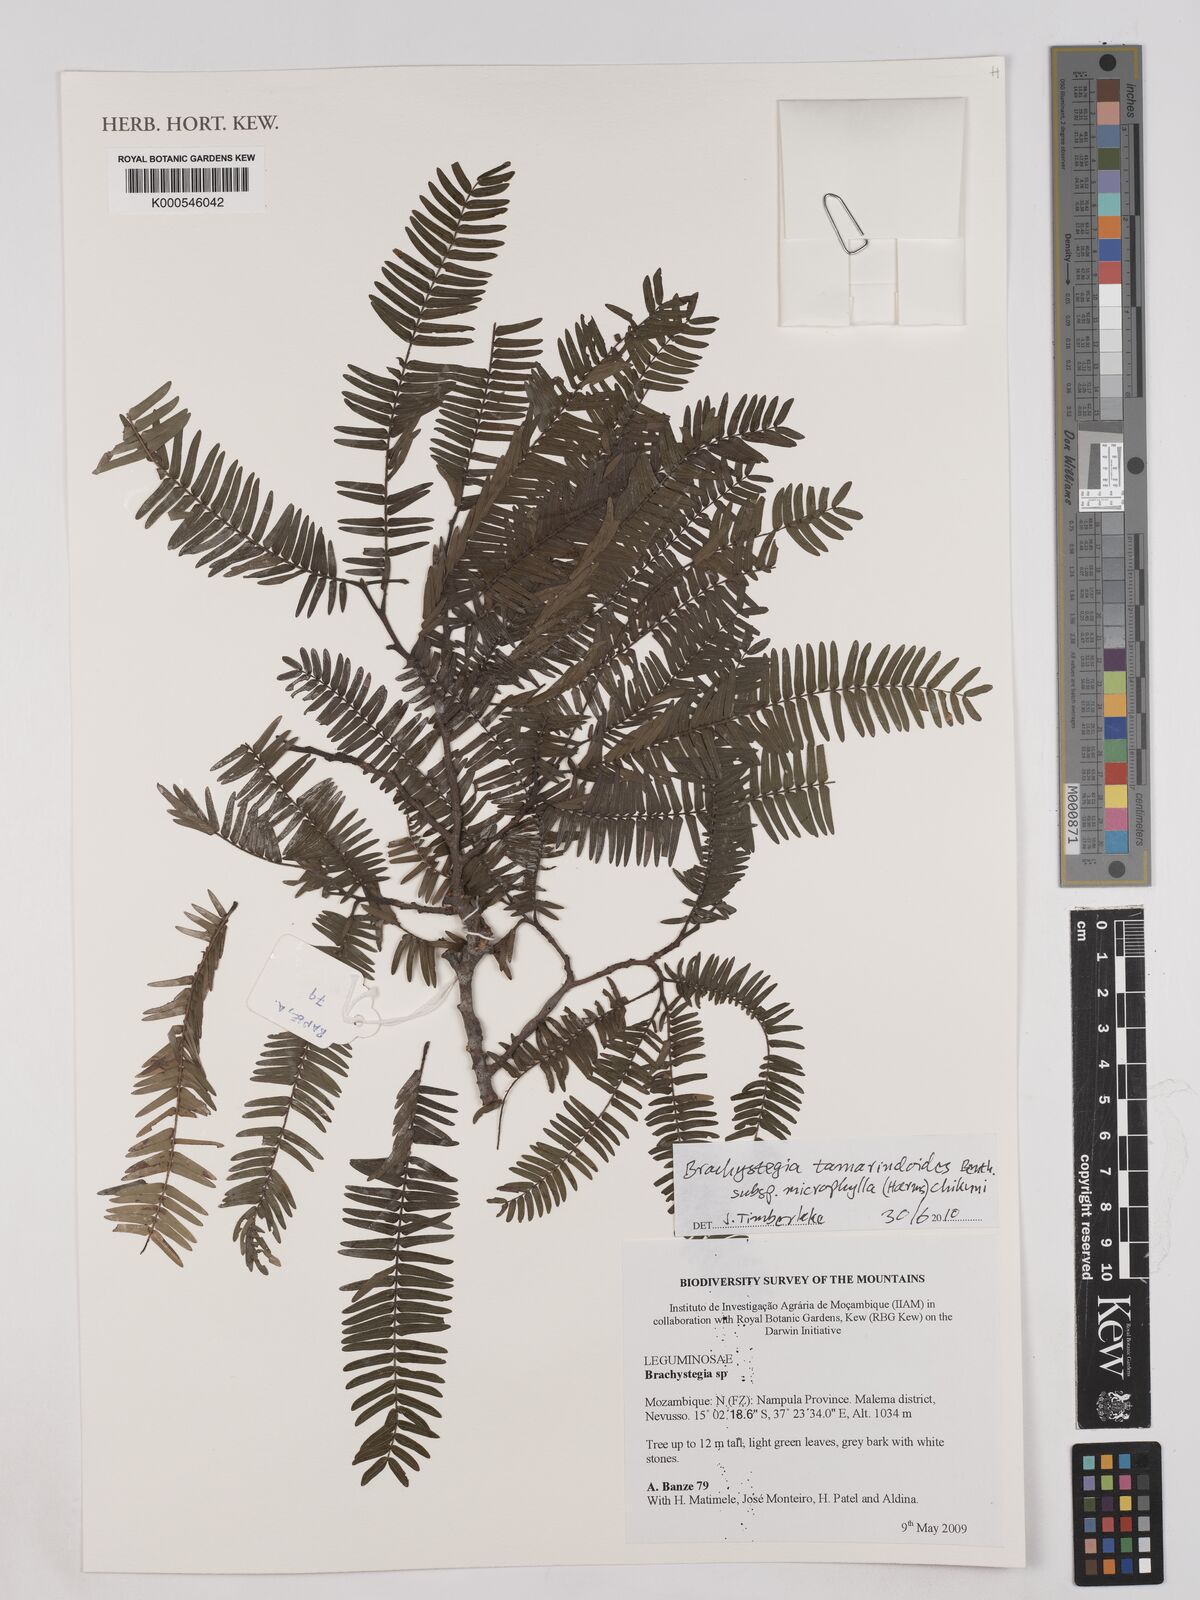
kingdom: Plantae
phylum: Tracheophyta
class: Magnoliopsida
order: Fabales
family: Fabaceae
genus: Brachystegia
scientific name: Brachystegia tamarindoides
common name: Mountain acacia
